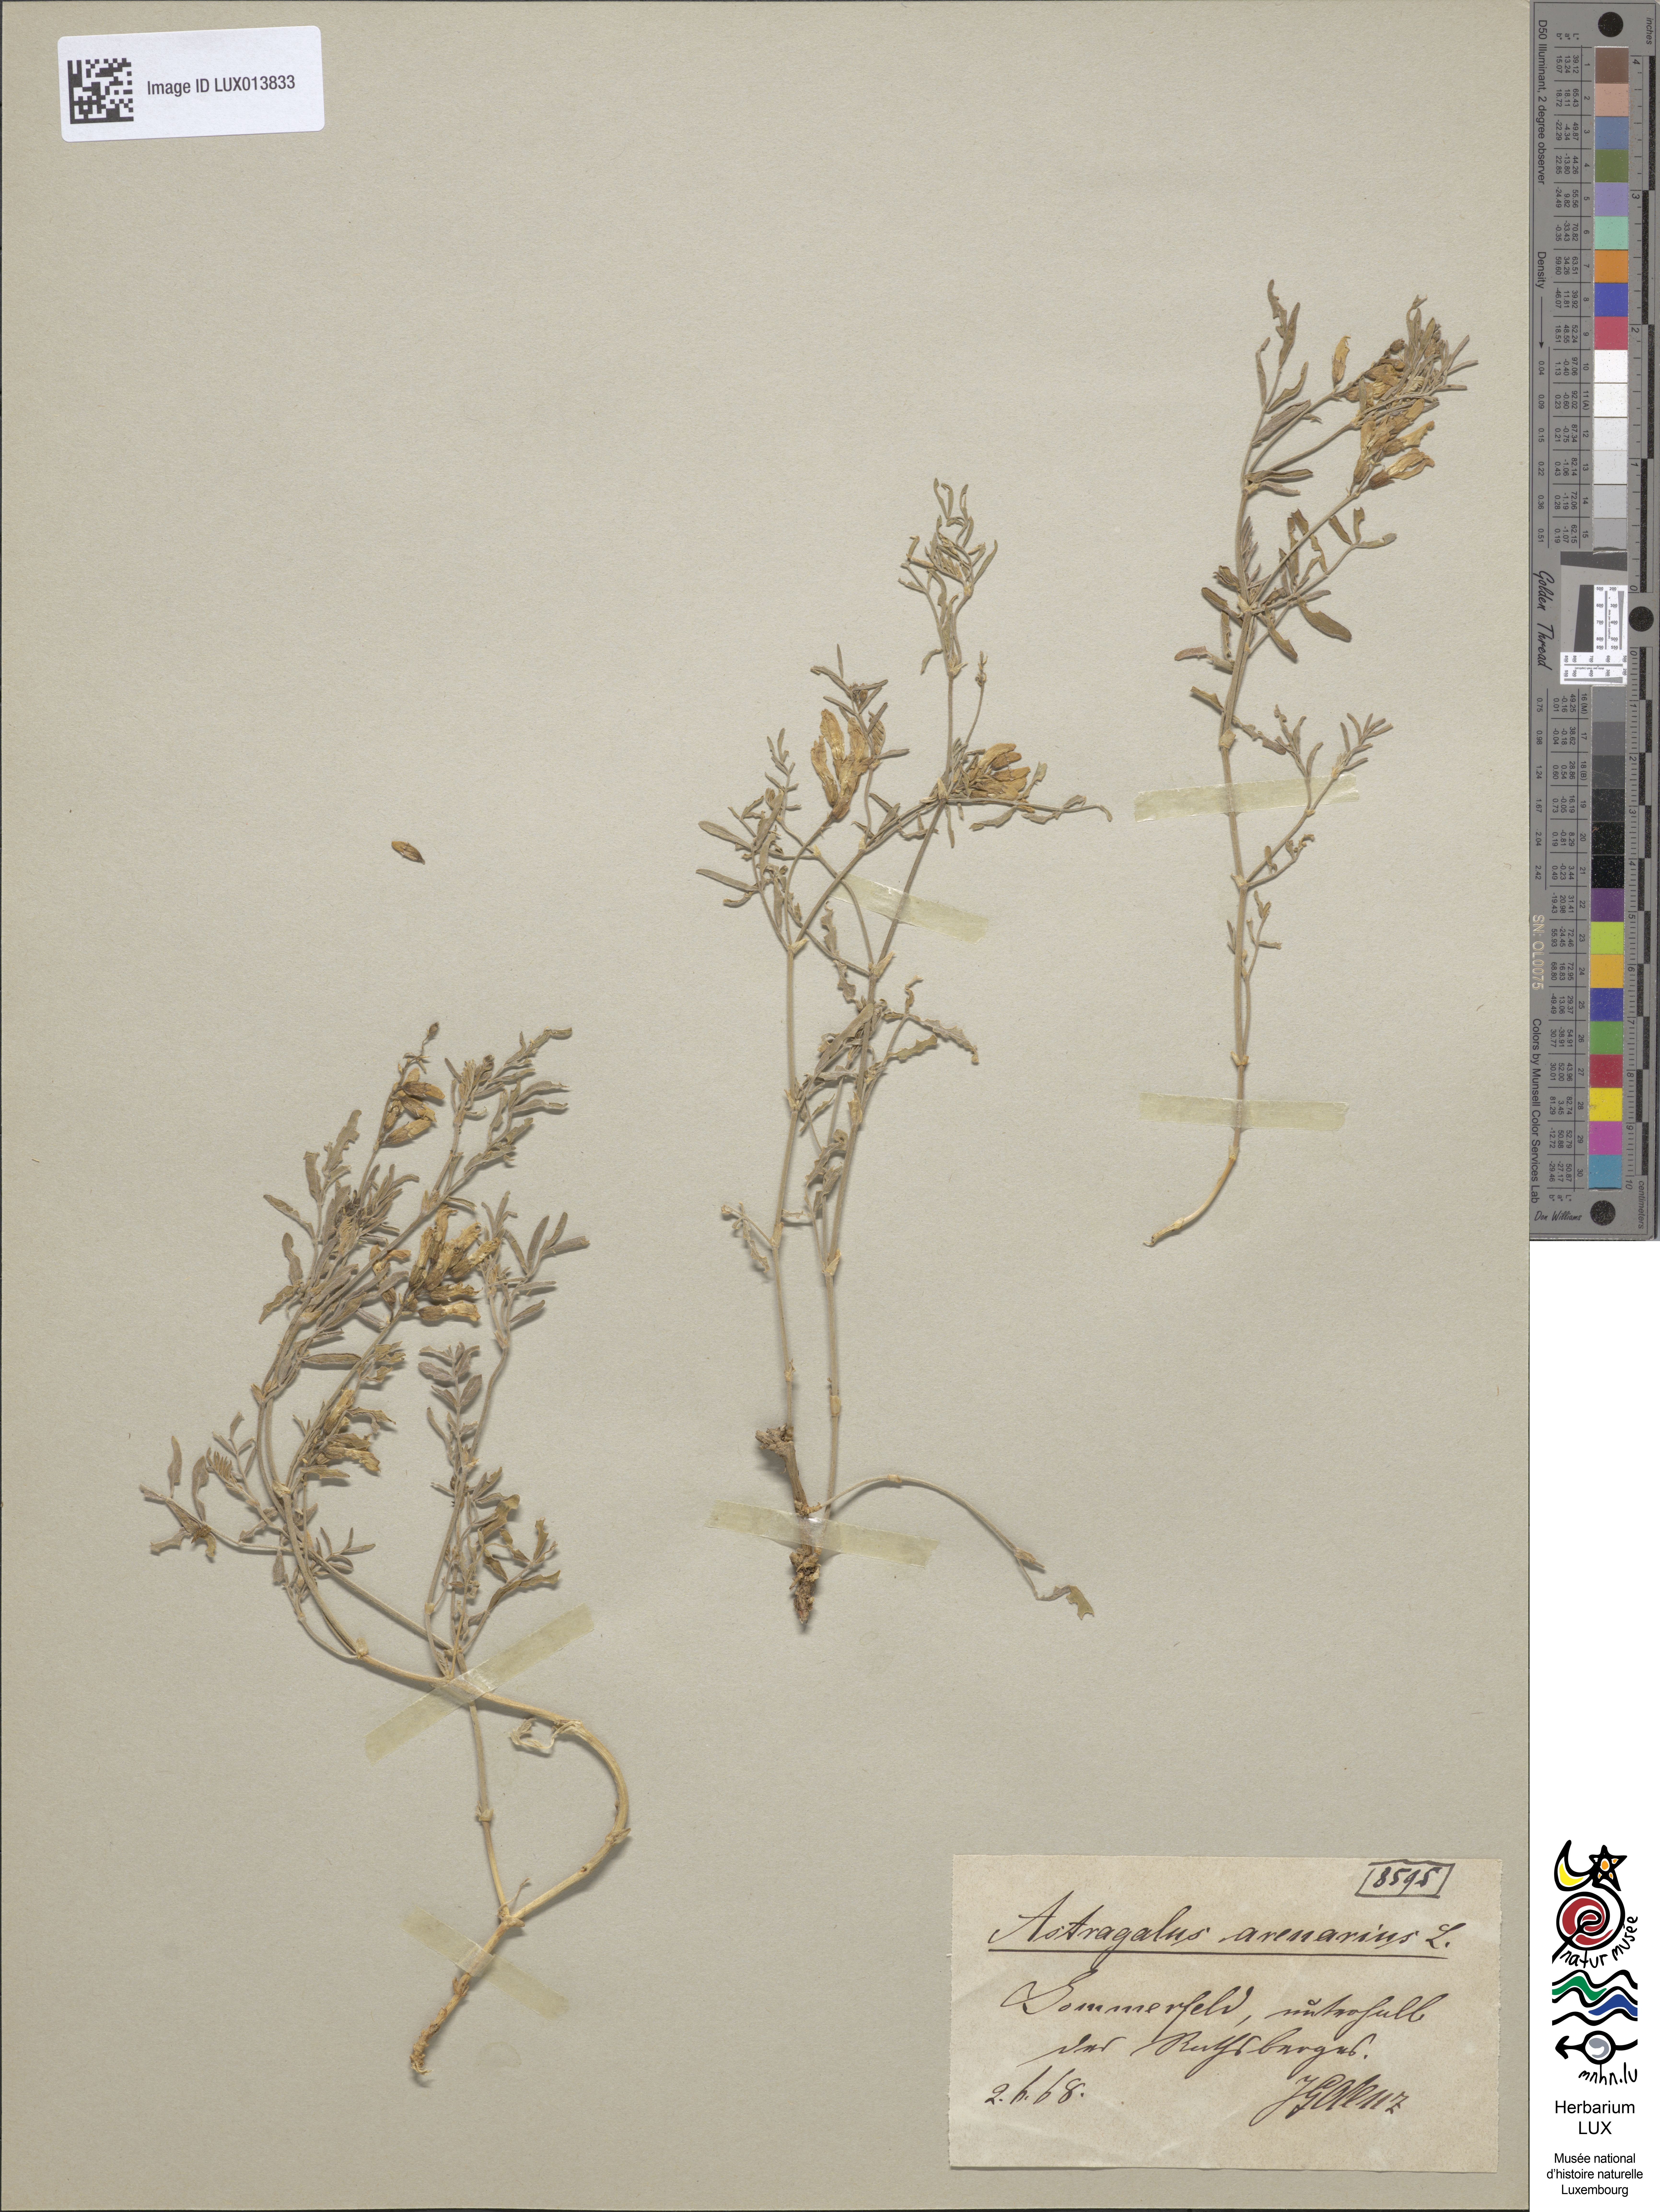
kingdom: Plantae
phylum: Tracheophyta
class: Magnoliopsida
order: Fabales
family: Fabaceae
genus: Astragalus
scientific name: Astragalus arenarius
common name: Arenarious milk-vetch
